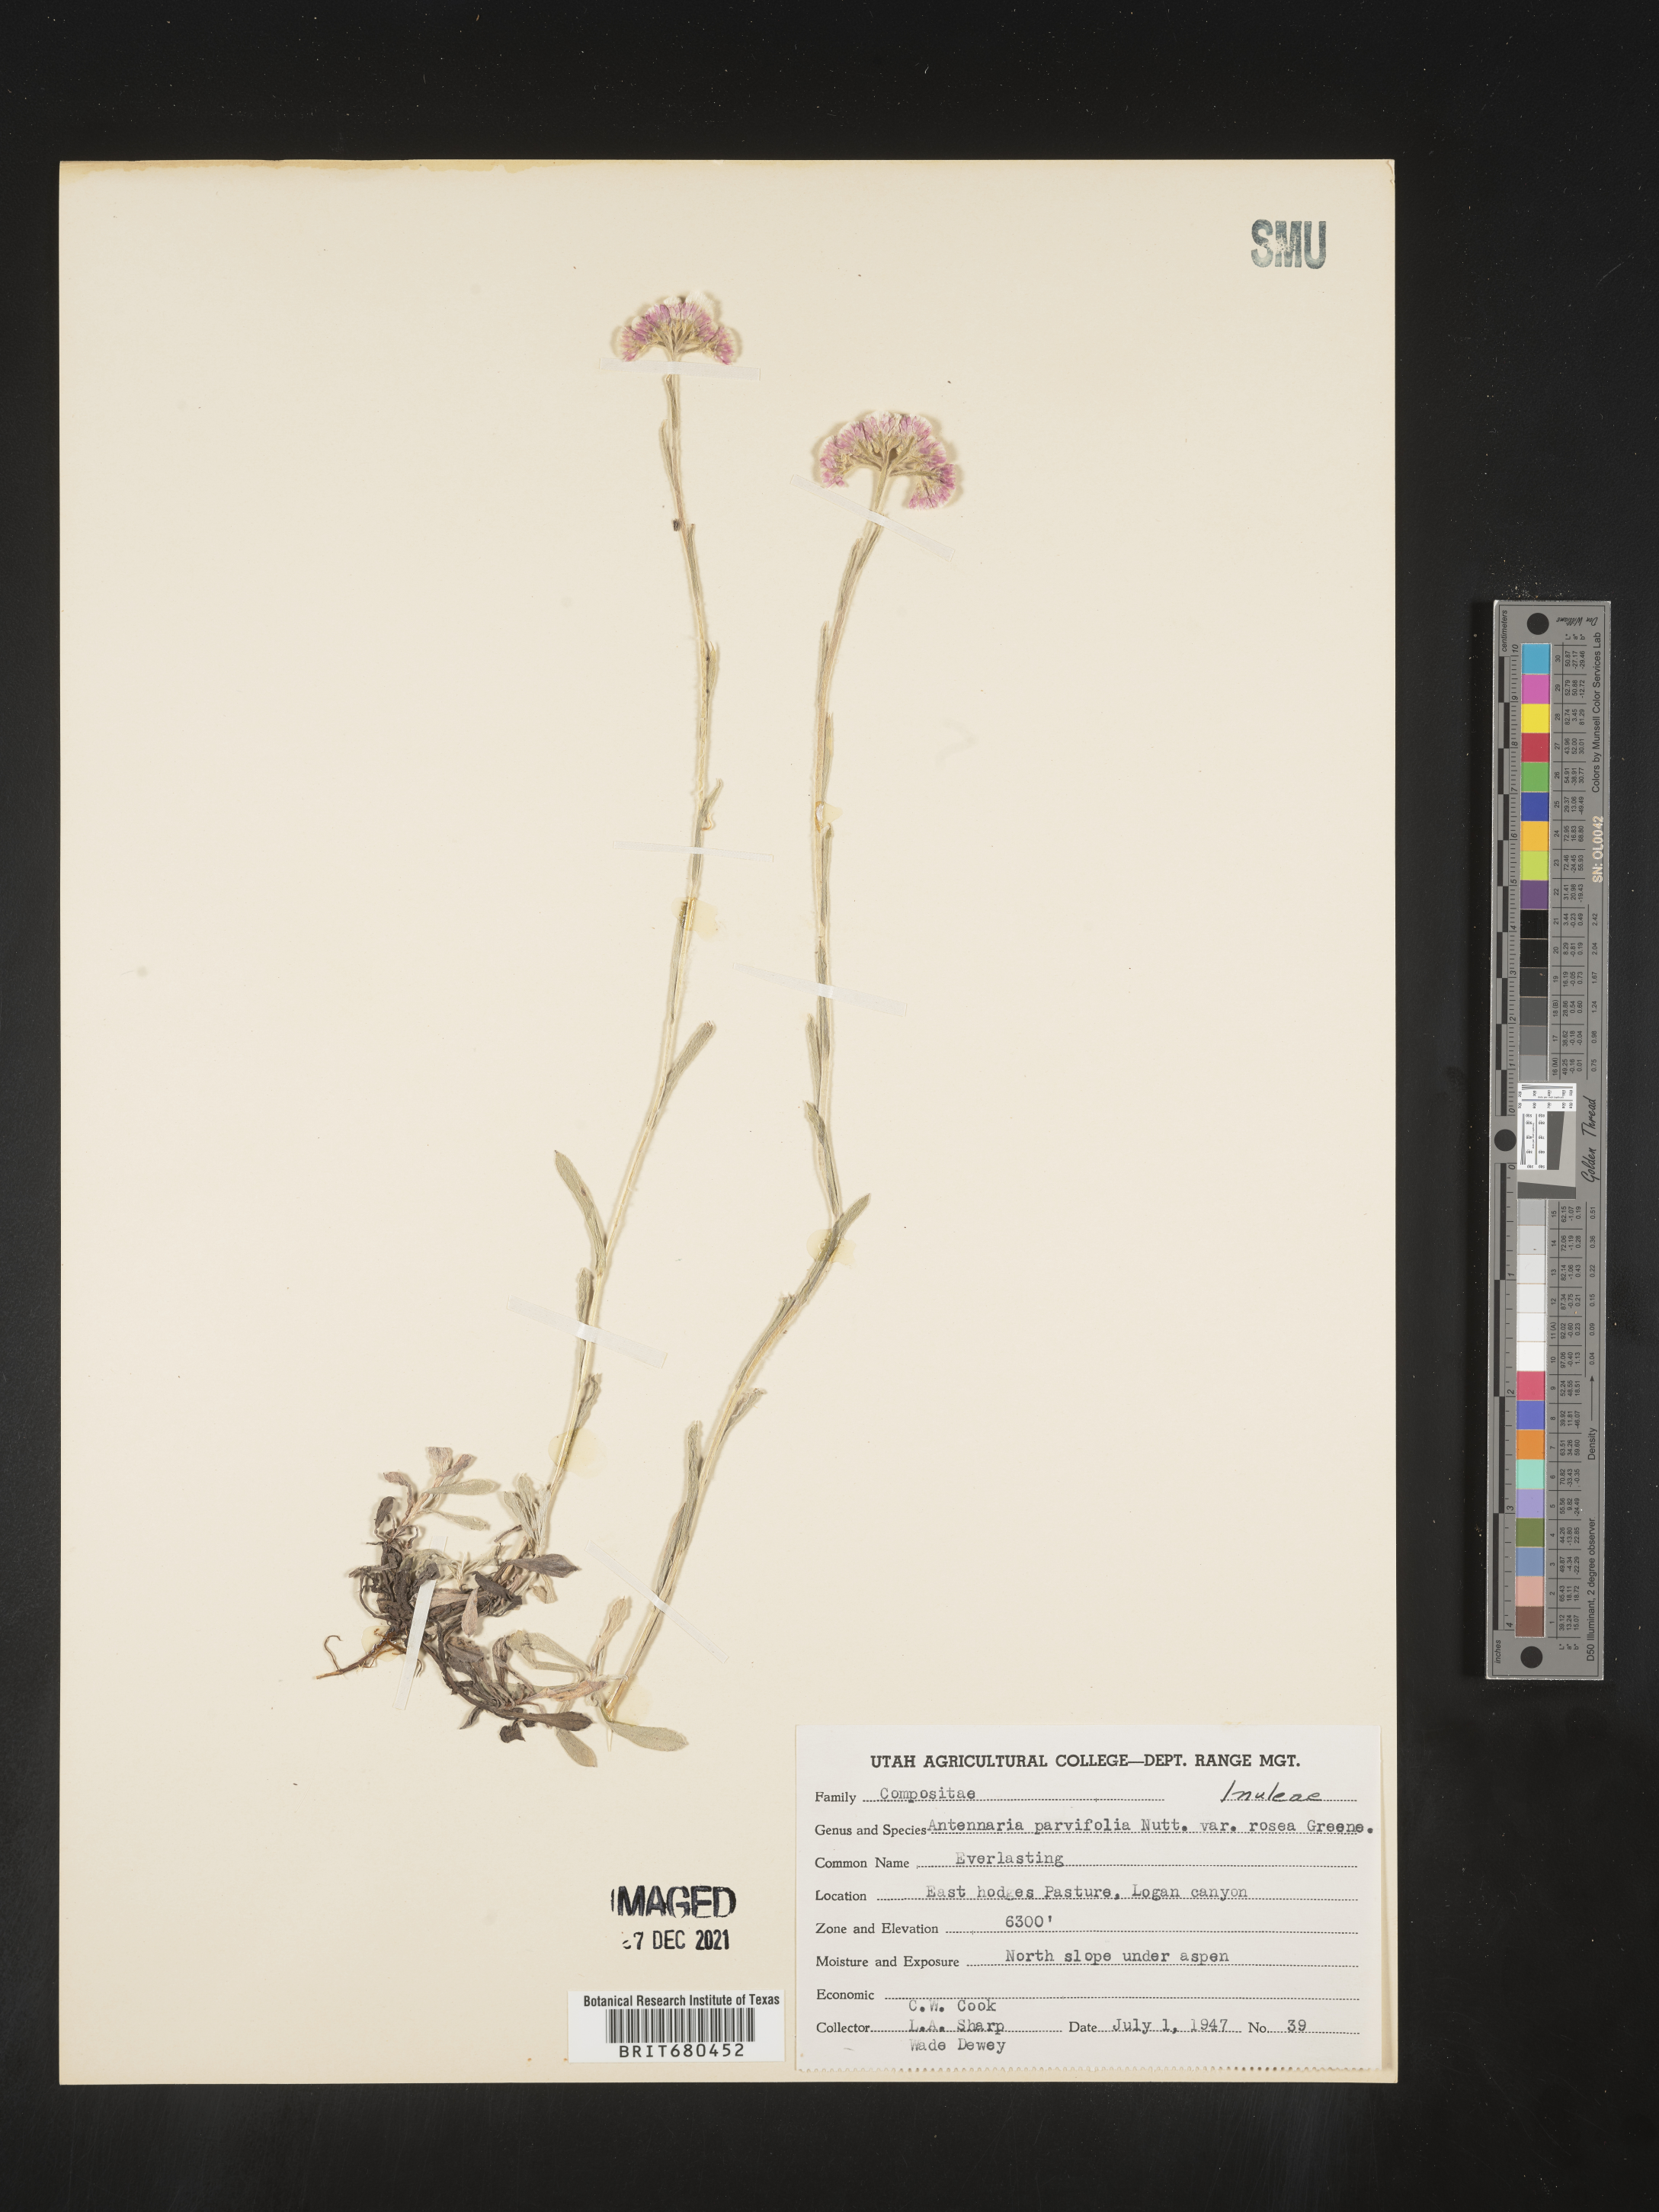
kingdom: Plantae
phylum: Tracheophyta
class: Magnoliopsida
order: Asterales
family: Asteraceae
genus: Antennaria
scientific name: Antennaria rosea
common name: Rosy pussytoes
